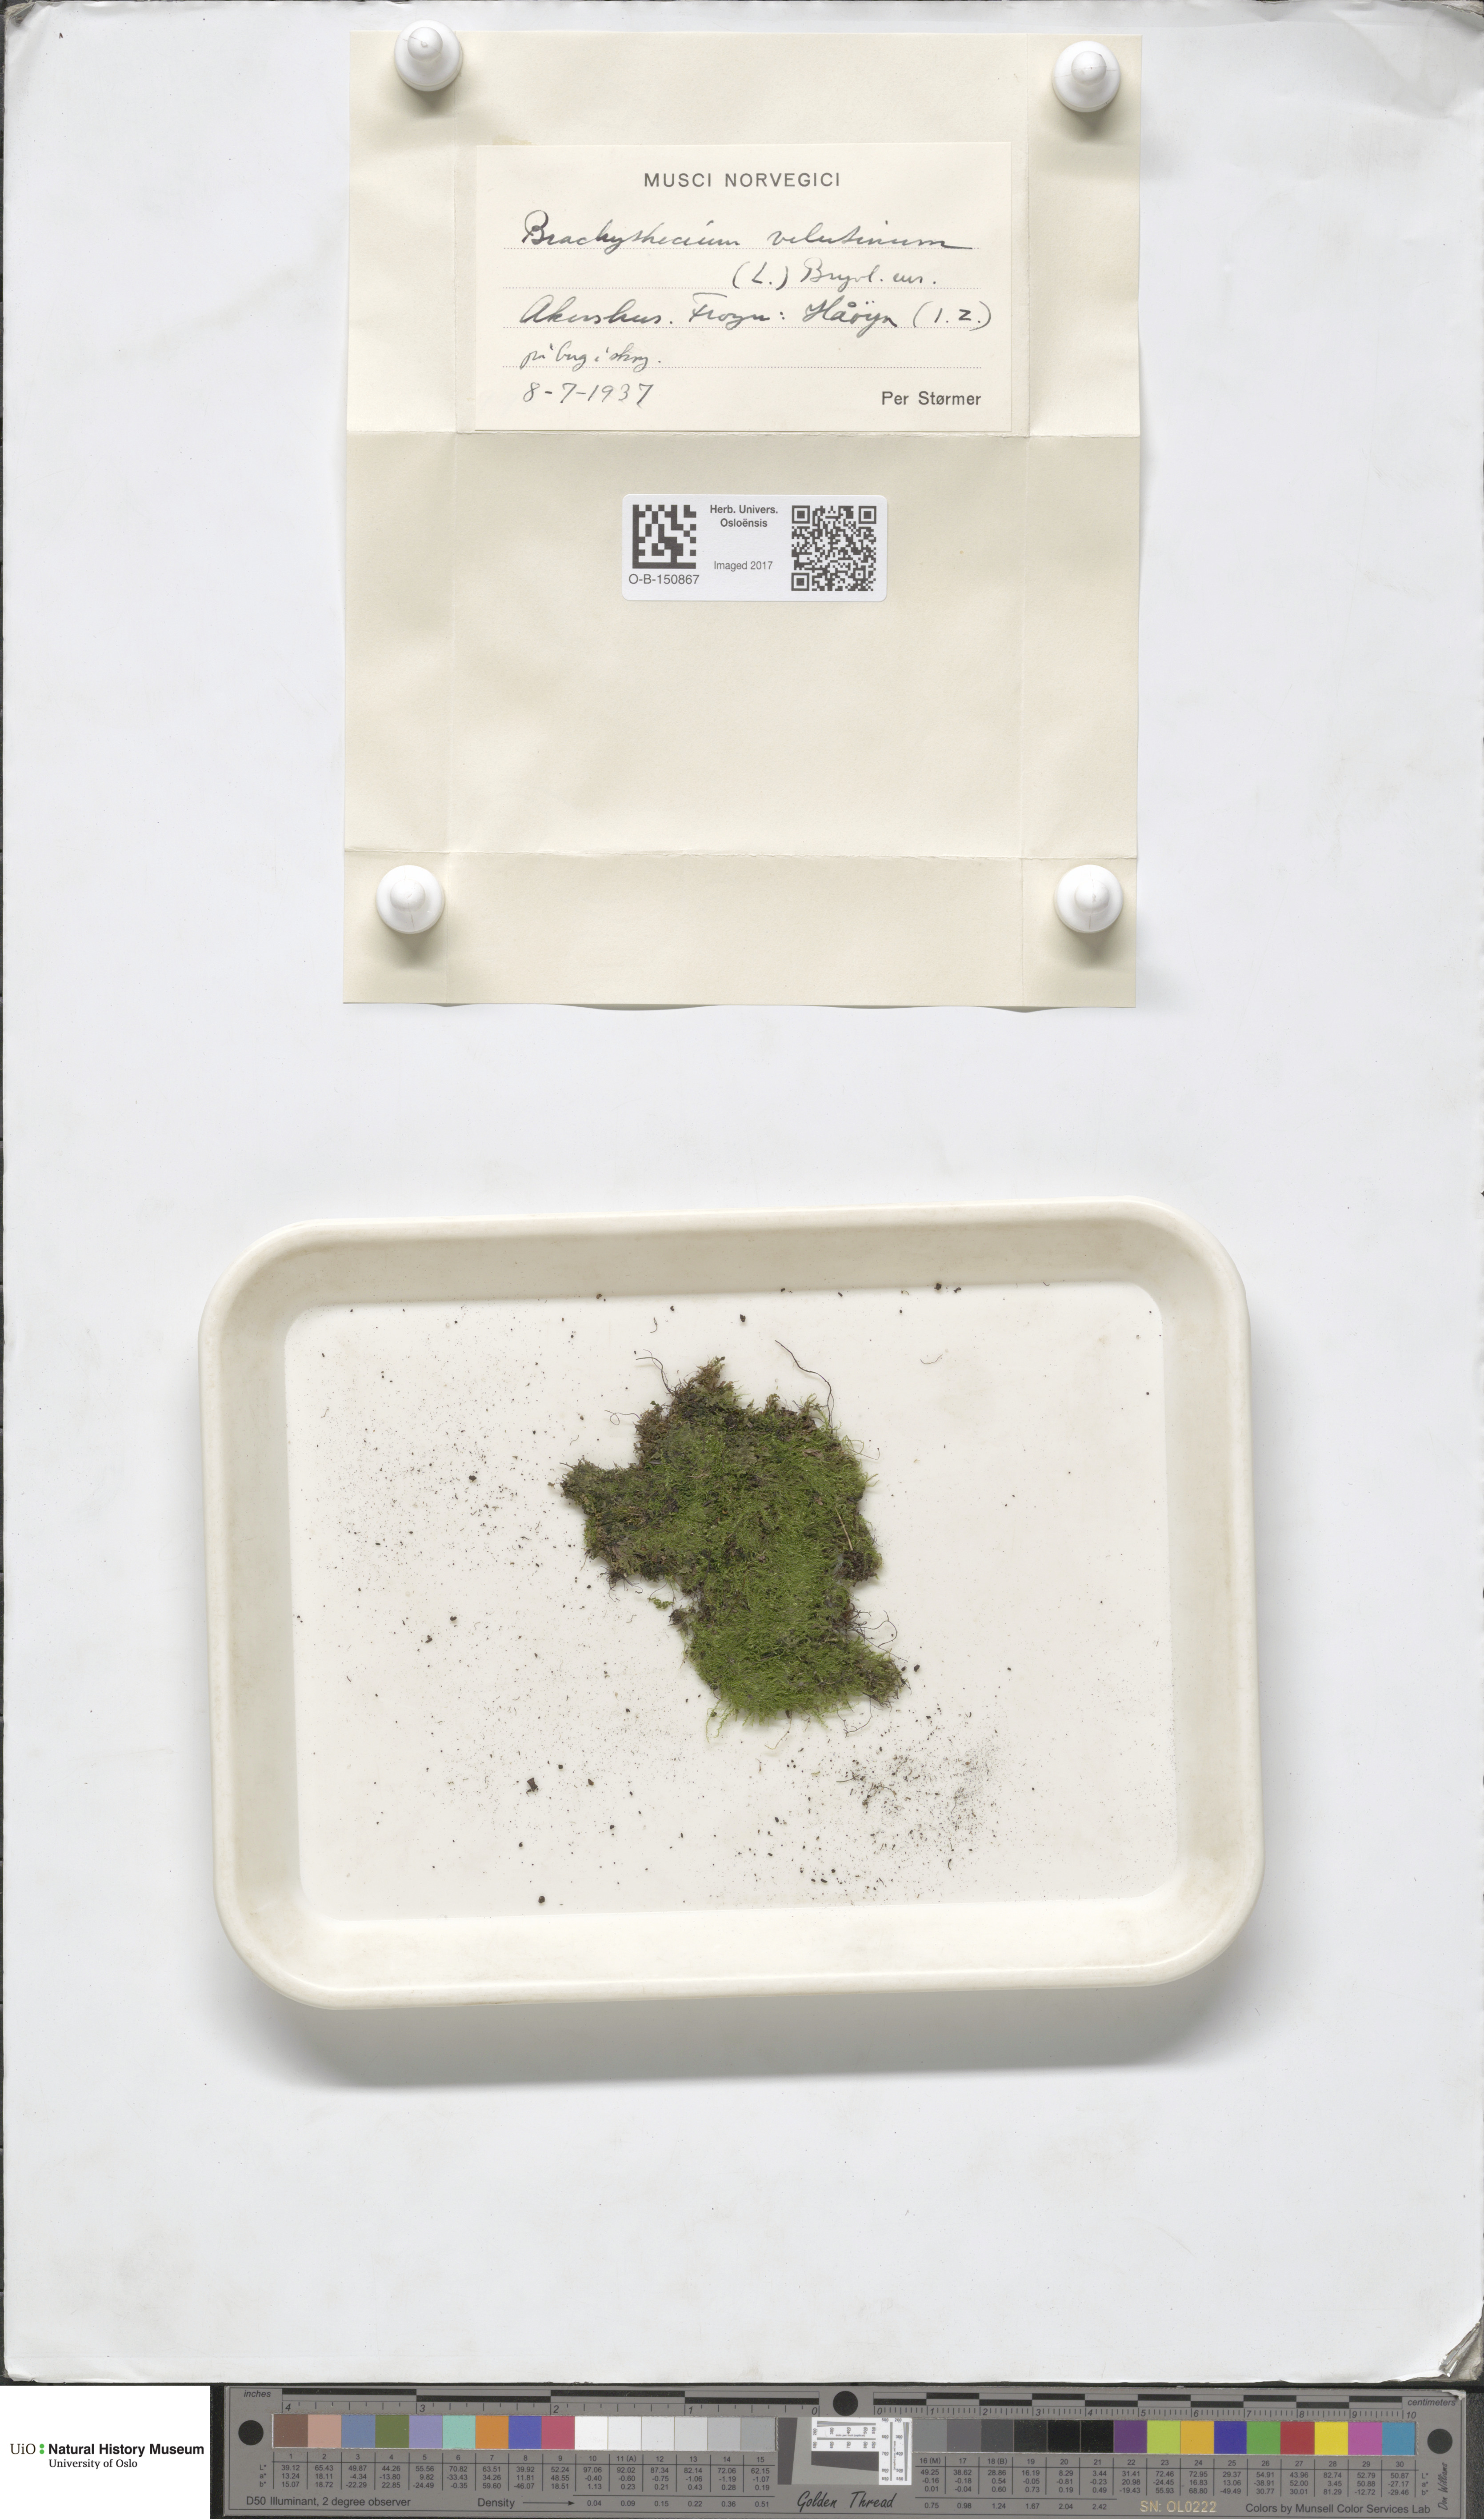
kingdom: Plantae
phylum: Bryophyta
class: Bryopsida
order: Hypnales
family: Brachytheciaceae
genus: Brachytheciastrum
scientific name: Brachytheciastrum velutinum
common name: Velvet feather-moss
